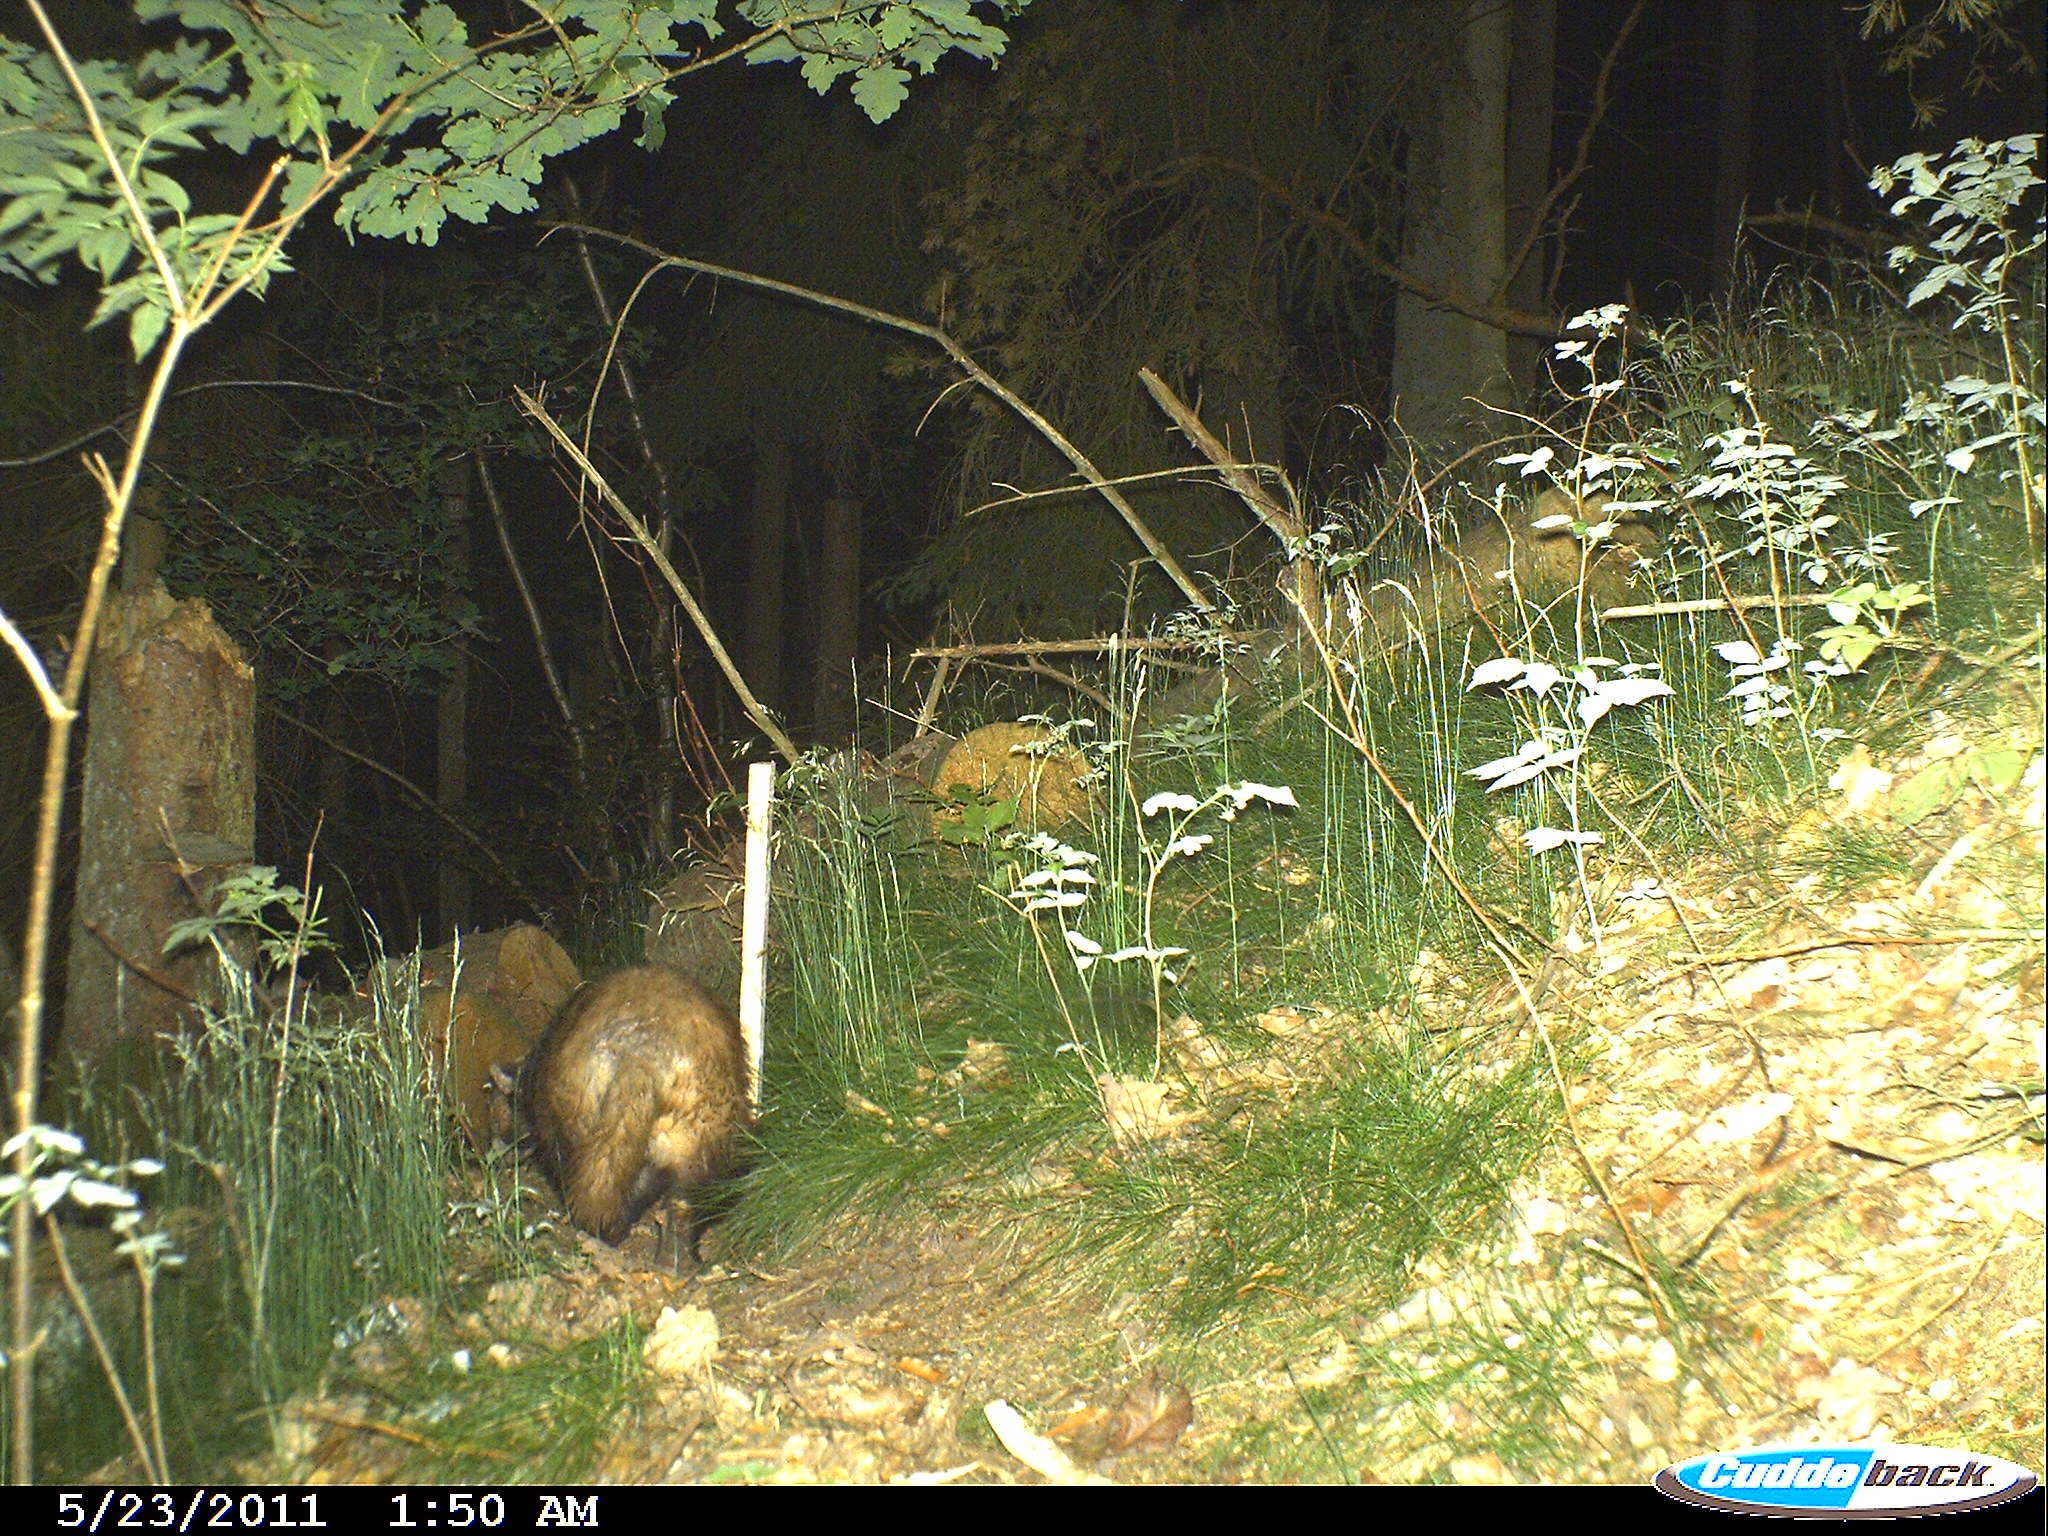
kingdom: Animalia
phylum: Chordata
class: Mammalia
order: Carnivora
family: Mustelidae
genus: Meles
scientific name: Meles meles
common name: Eurasian badger
